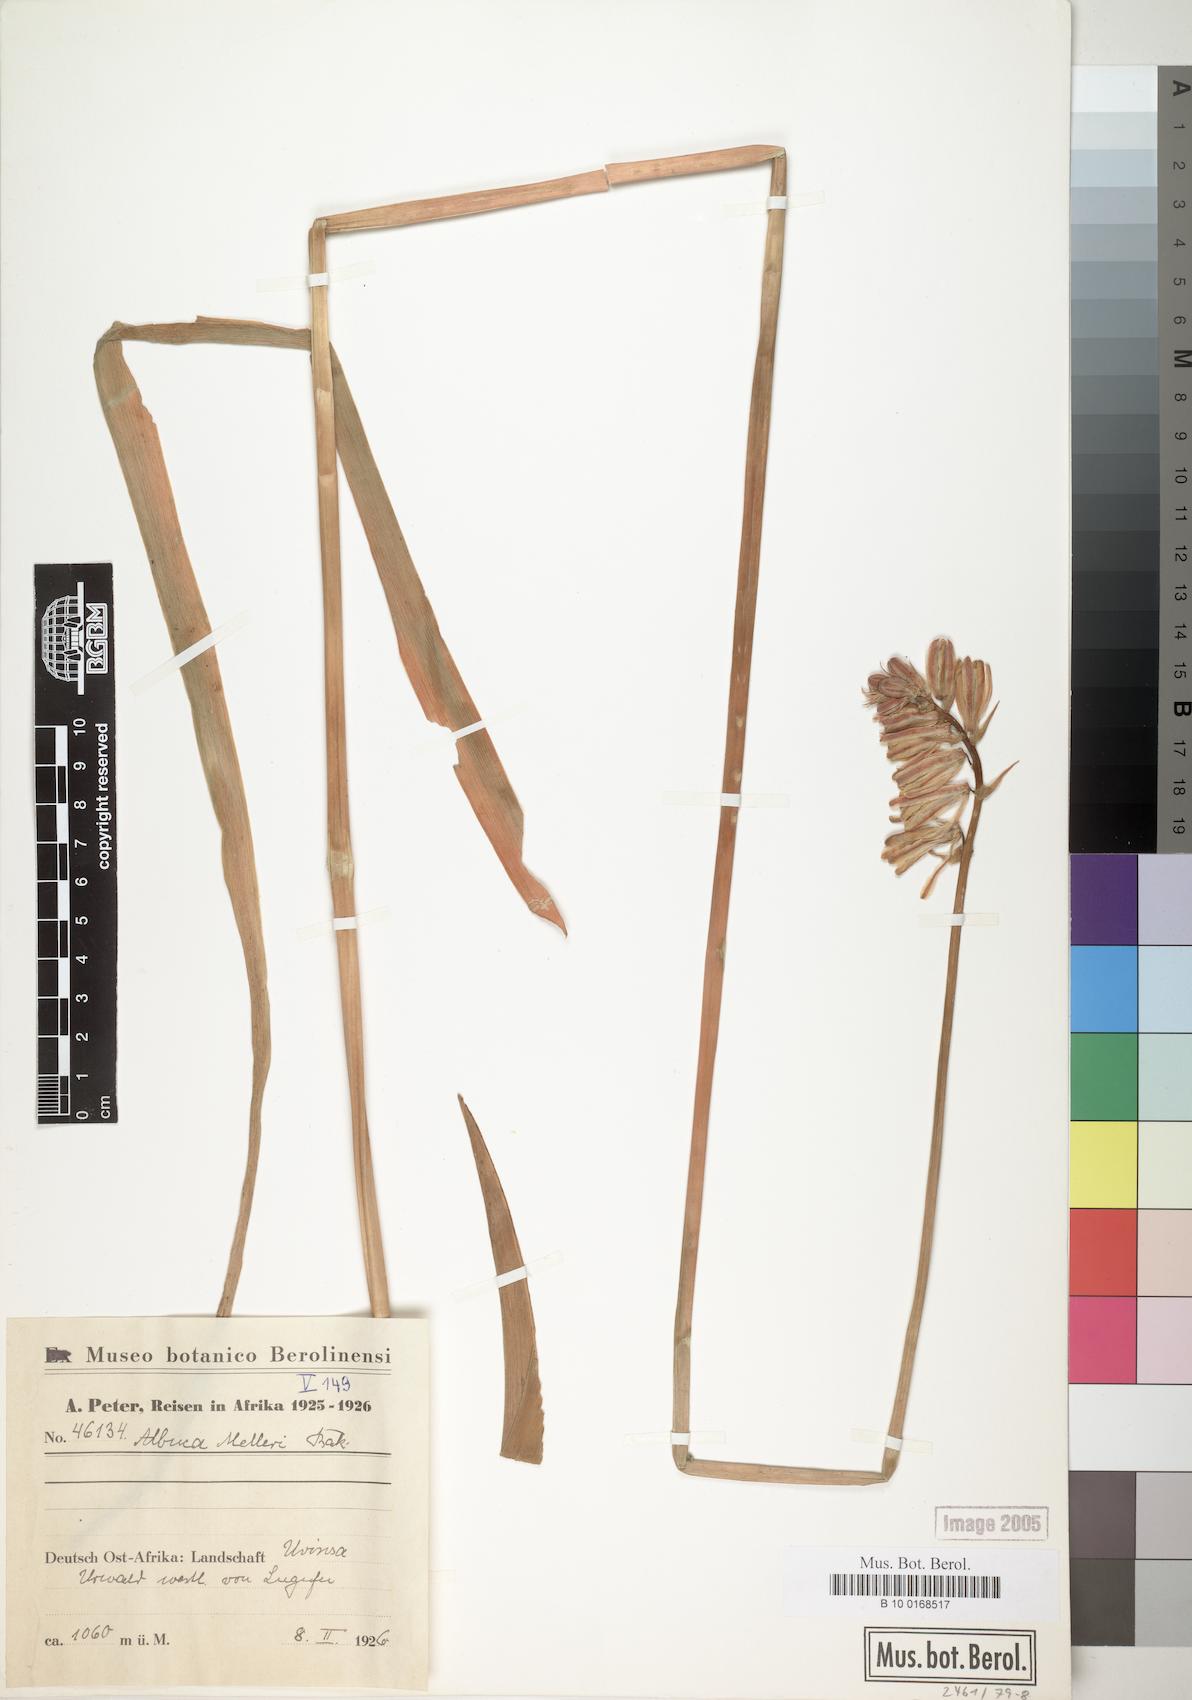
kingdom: Plantae
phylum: Tracheophyta
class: Liliopsida
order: Asparagales
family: Asparagaceae
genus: Albuca
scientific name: Albuca abyssinica
